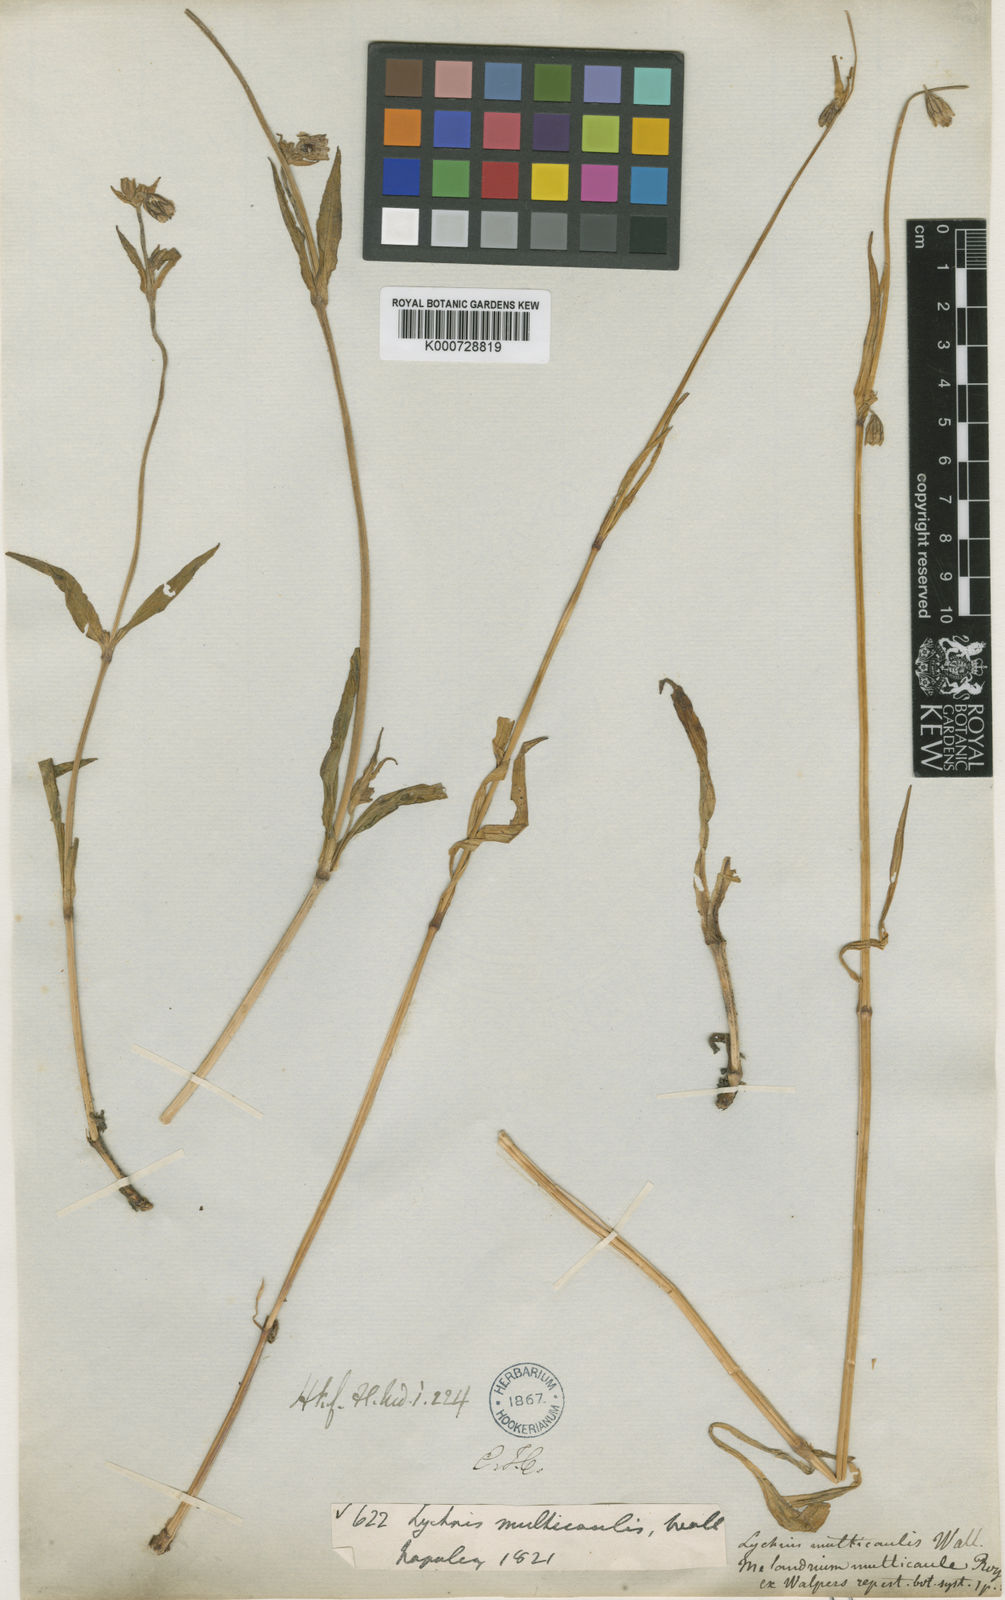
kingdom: Plantae
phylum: Tracheophyta
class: Magnoliopsida
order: Caryophyllales
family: Caryophyllaceae
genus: Silene
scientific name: Silene nepalensis
